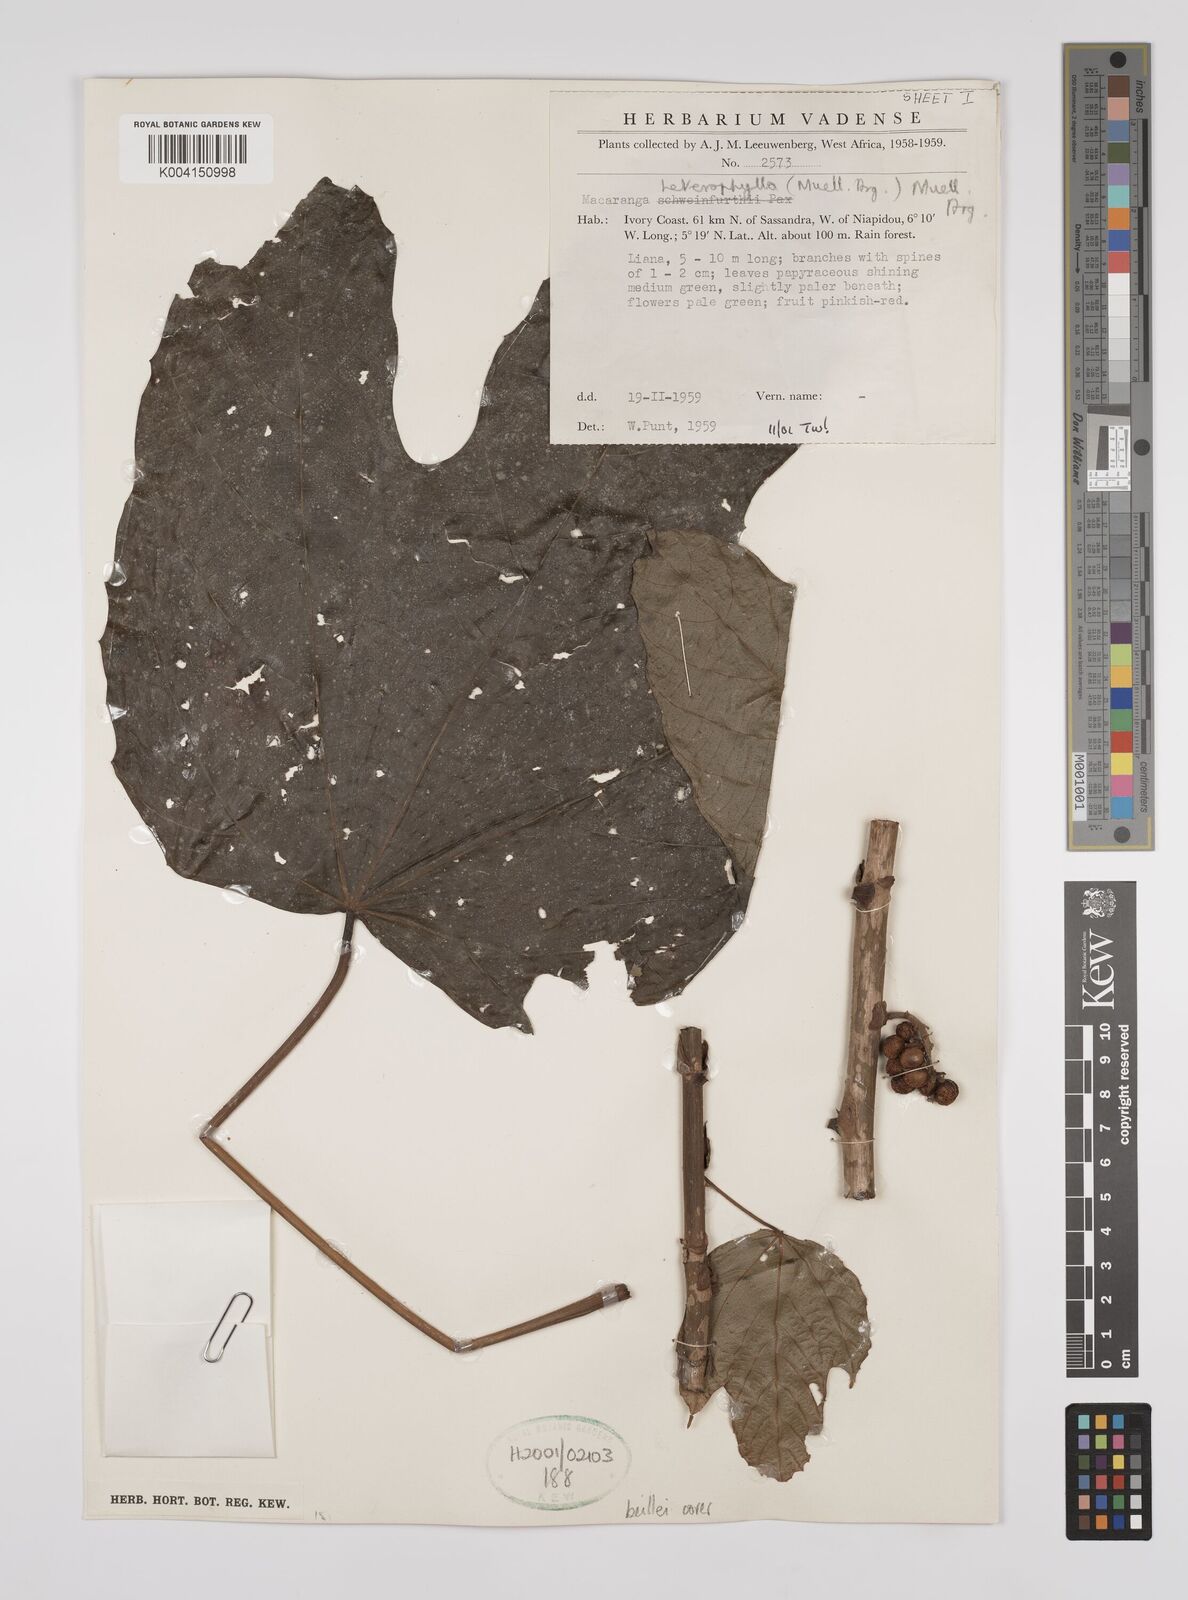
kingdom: Plantae
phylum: Tracheophyta
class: Magnoliopsida
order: Malpighiales
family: Euphorbiaceae
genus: Macaranga
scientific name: Macaranga beillei
